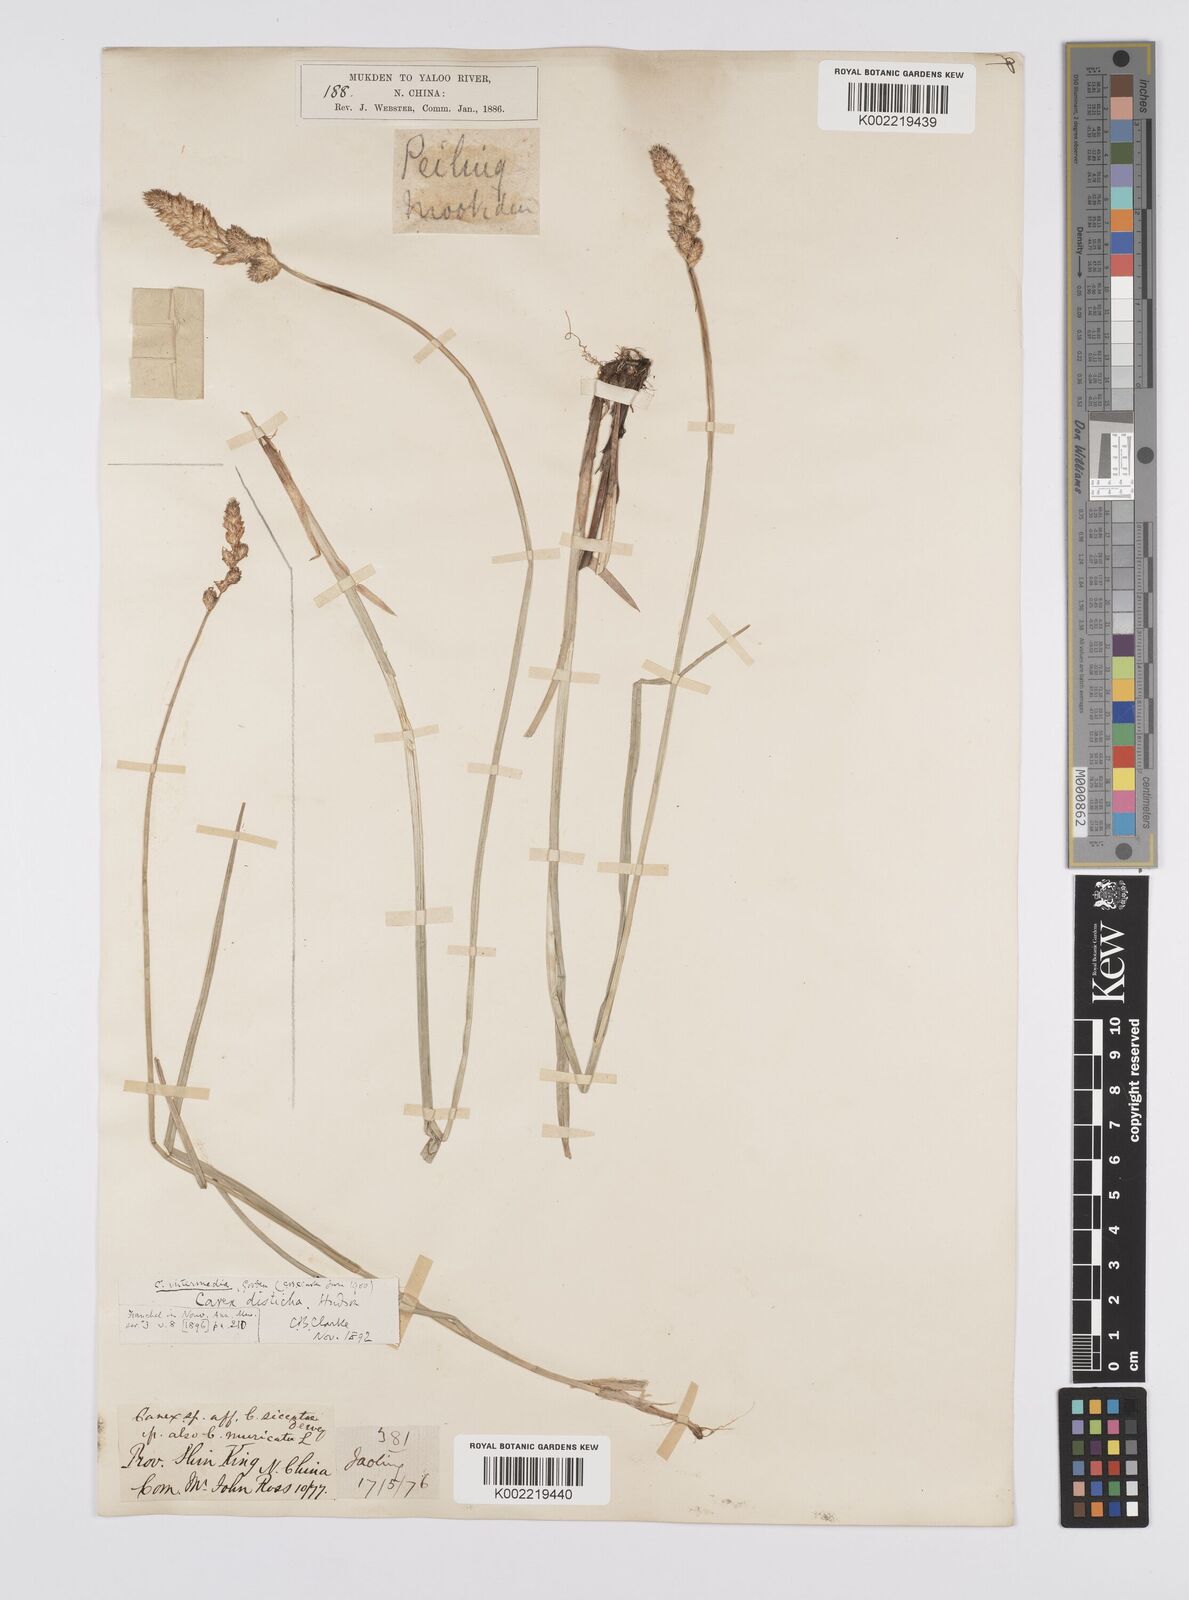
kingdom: Plantae
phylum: Tracheophyta
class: Liliopsida
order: Poales
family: Cyperaceae
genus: Carex
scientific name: Carex disticha
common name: Brown sedge
